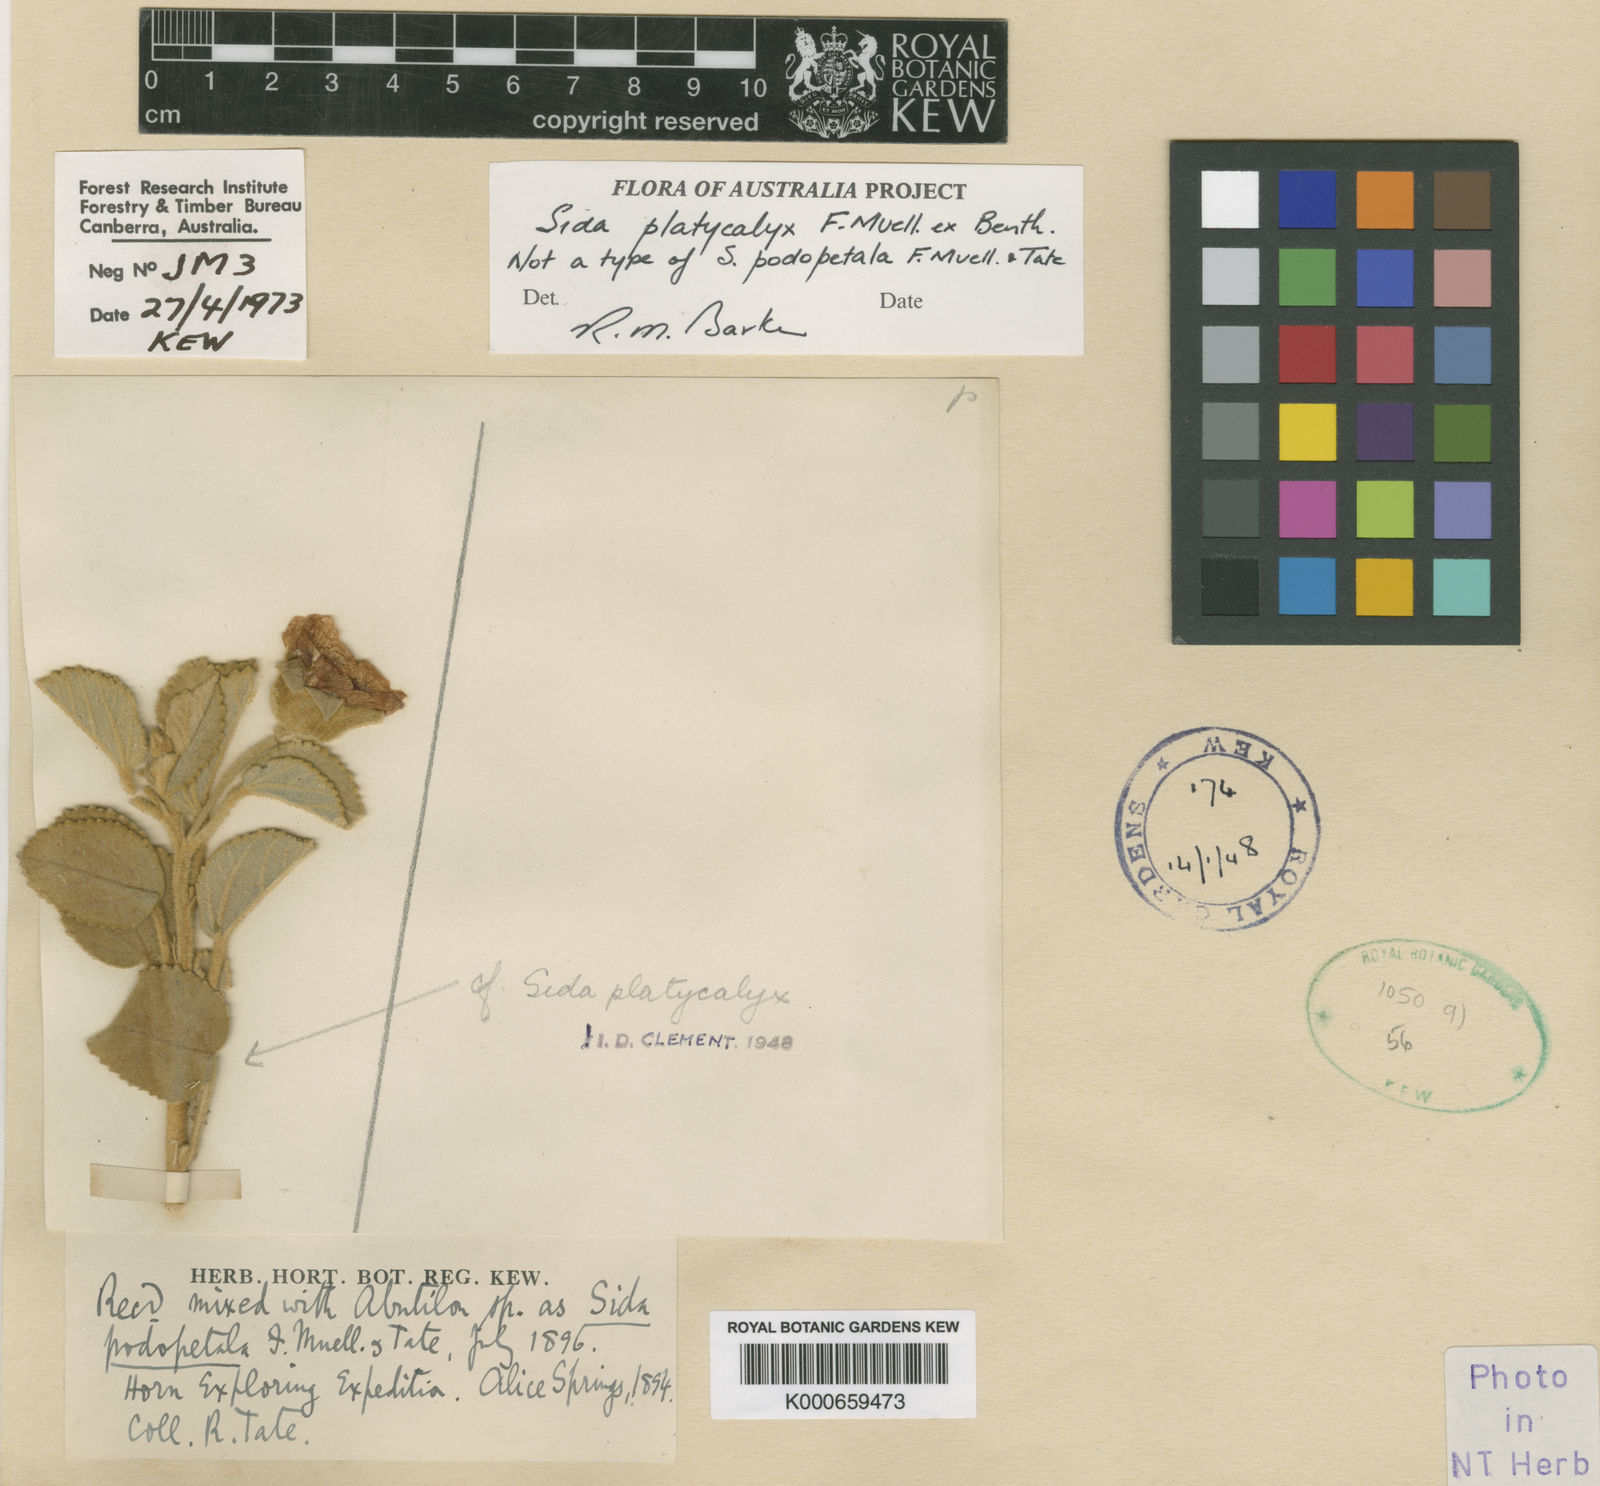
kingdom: Plantae
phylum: Tracheophyta
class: Magnoliopsida
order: Malvales
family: Malvaceae
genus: Sida
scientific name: Sida platycalyx
